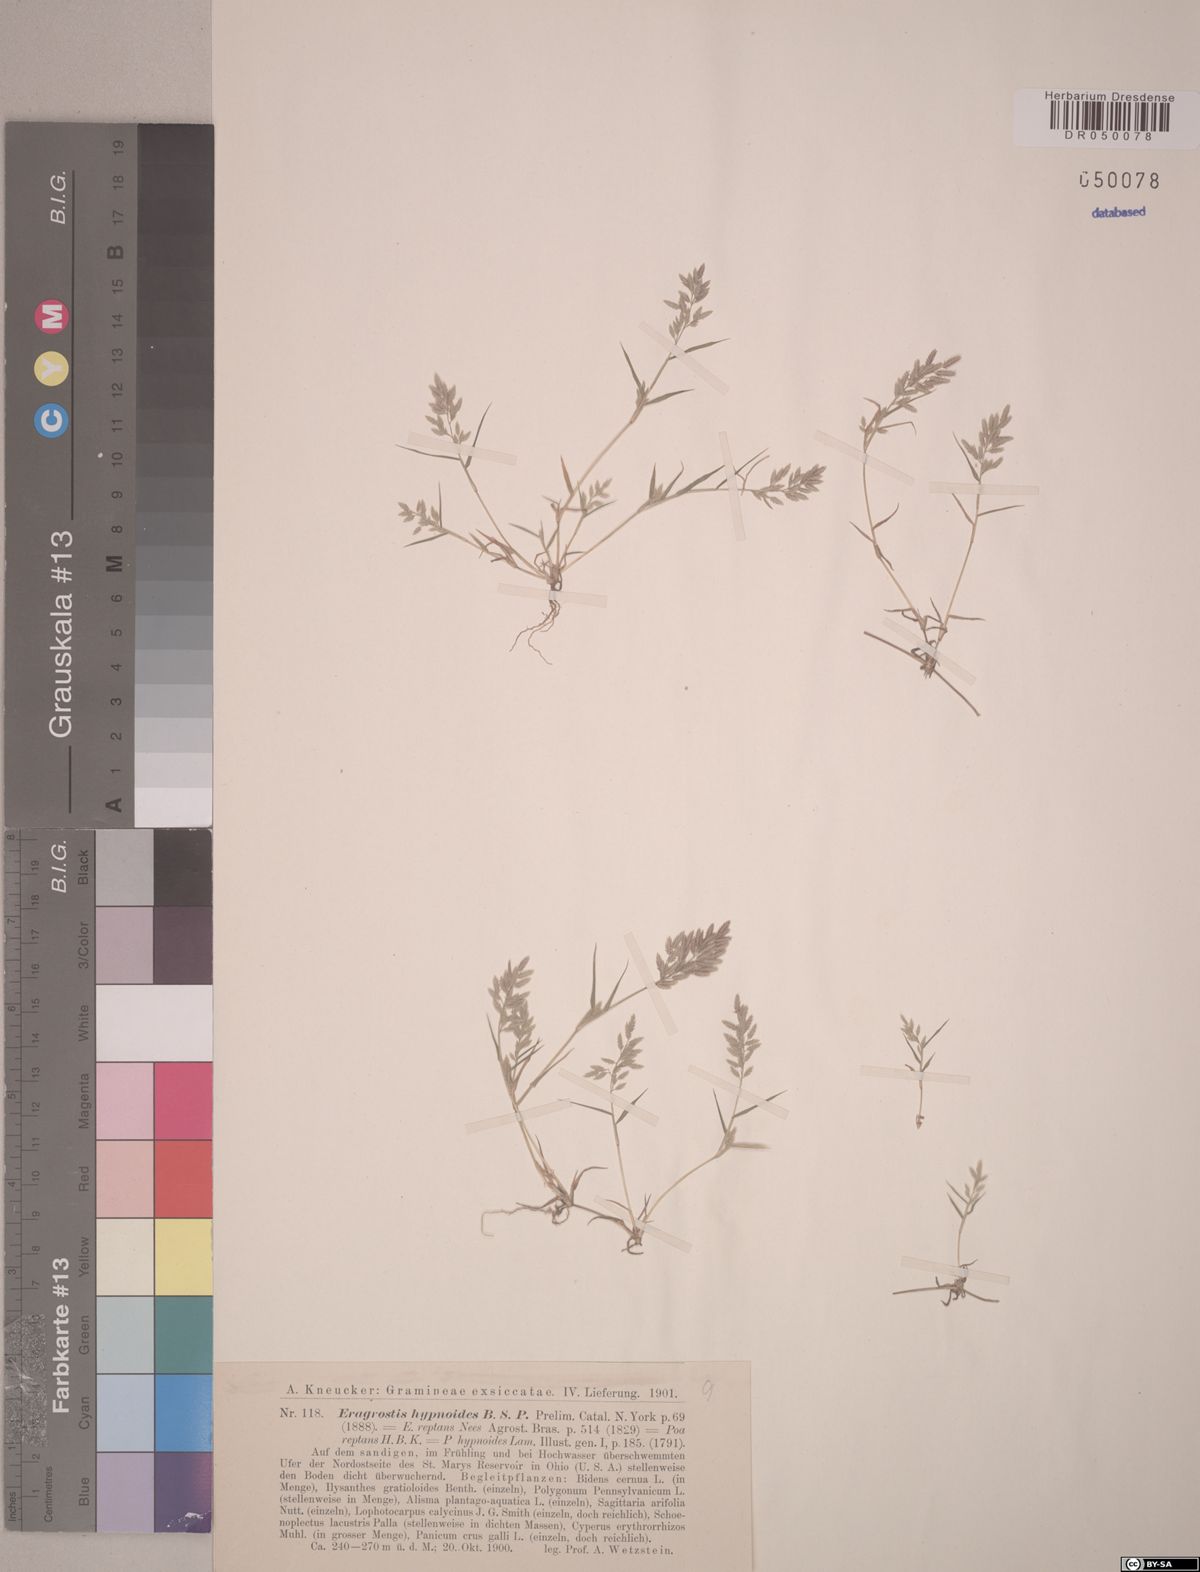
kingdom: Plantae
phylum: Tracheophyta
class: Liliopsida
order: Poales
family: Poaceae
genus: Eragrostis
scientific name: Eragrostis hypnoides
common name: Creeping love grass
